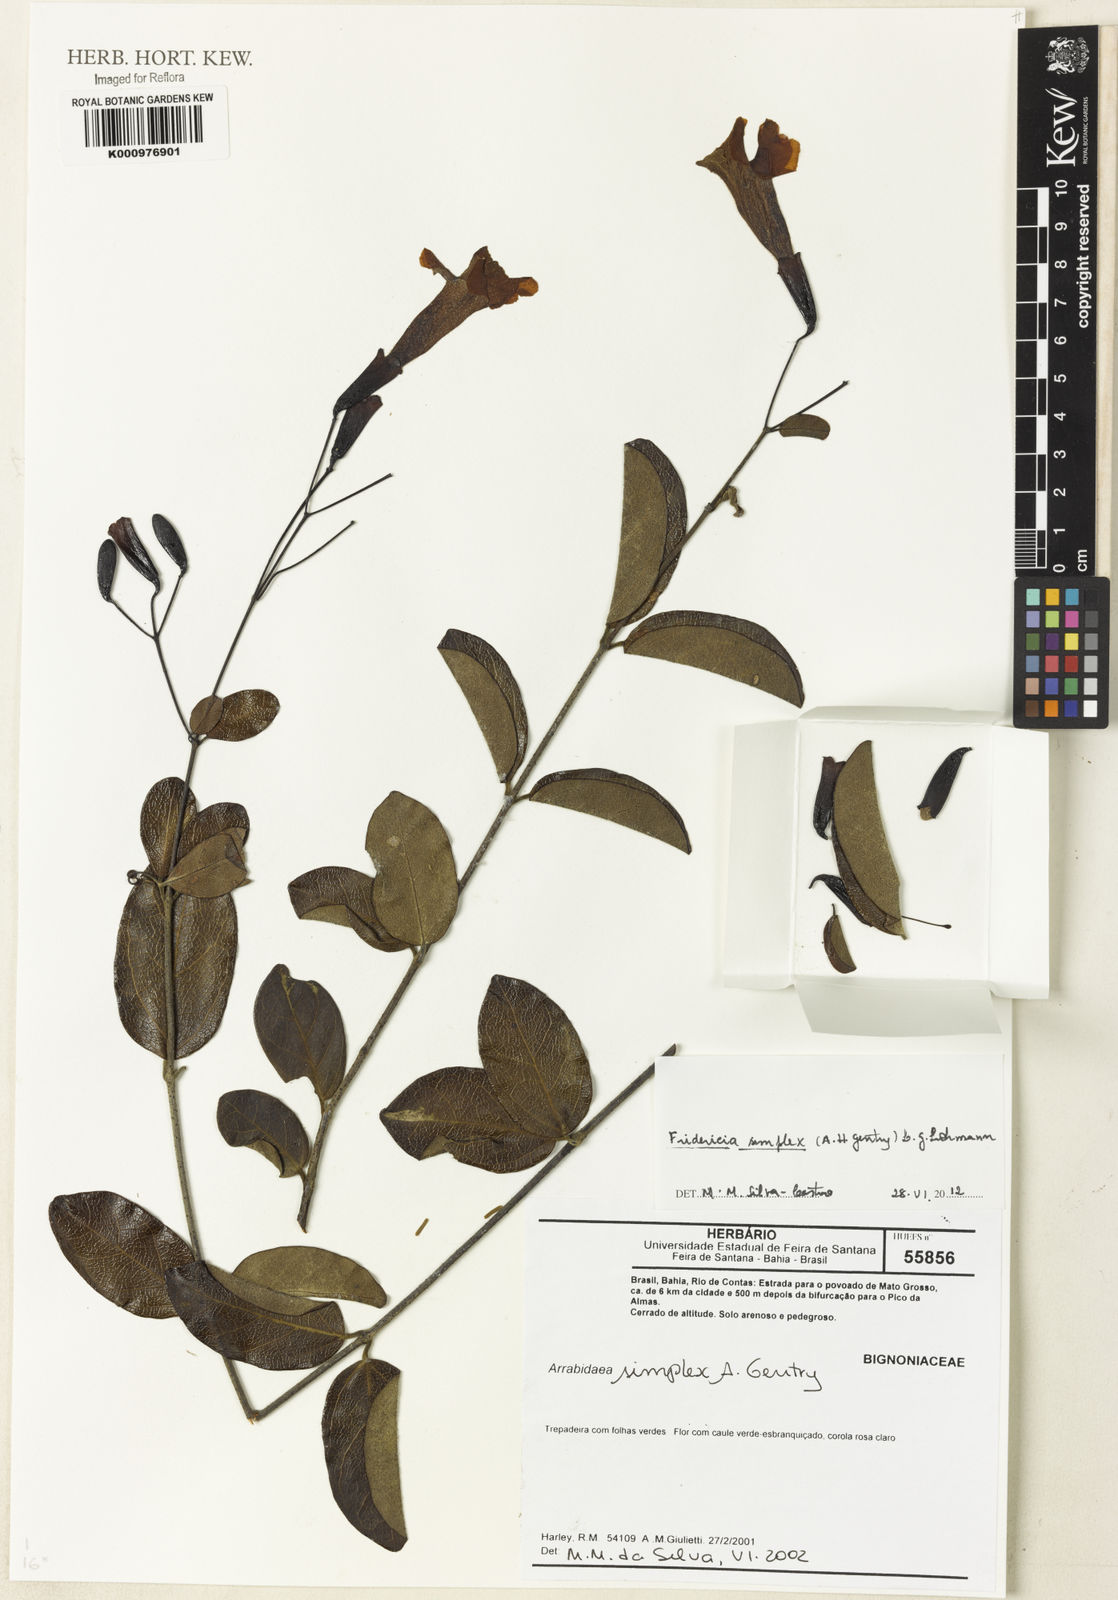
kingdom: Plantae
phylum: Tracheophyta
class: Magnoliopsida
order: Lamiales
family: Bignoniaceae
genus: Fridericia
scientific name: Fridericia simplex
